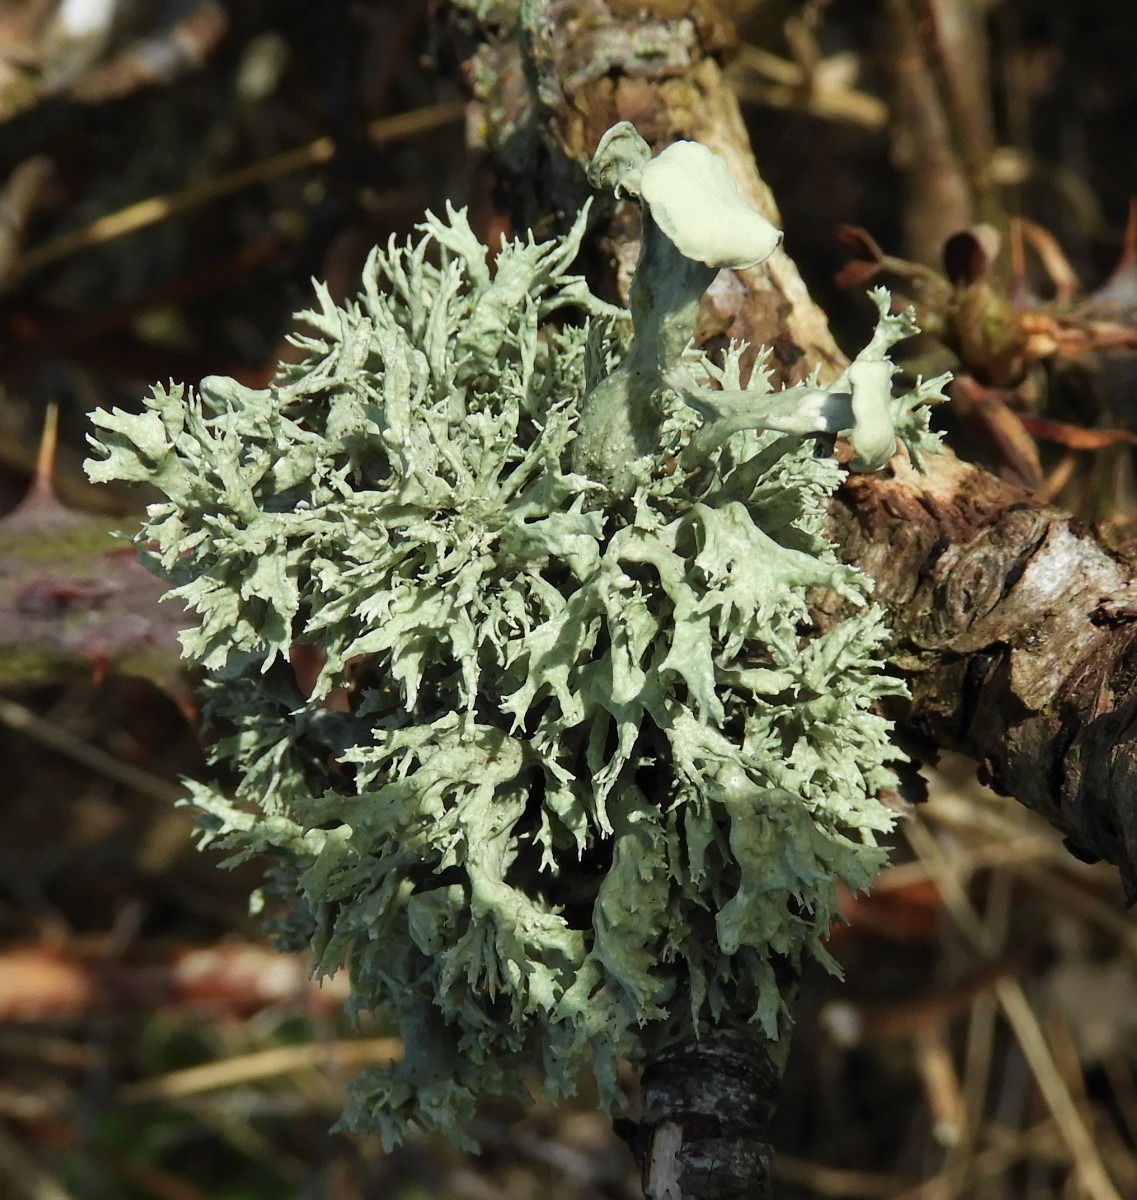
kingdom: Fungi
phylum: Ascomycota
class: Lecanoromycetes
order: Lecanorales
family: Ramalinaceae
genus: Ramalina
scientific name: Ramalina fastigiata
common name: tue-grenlav
